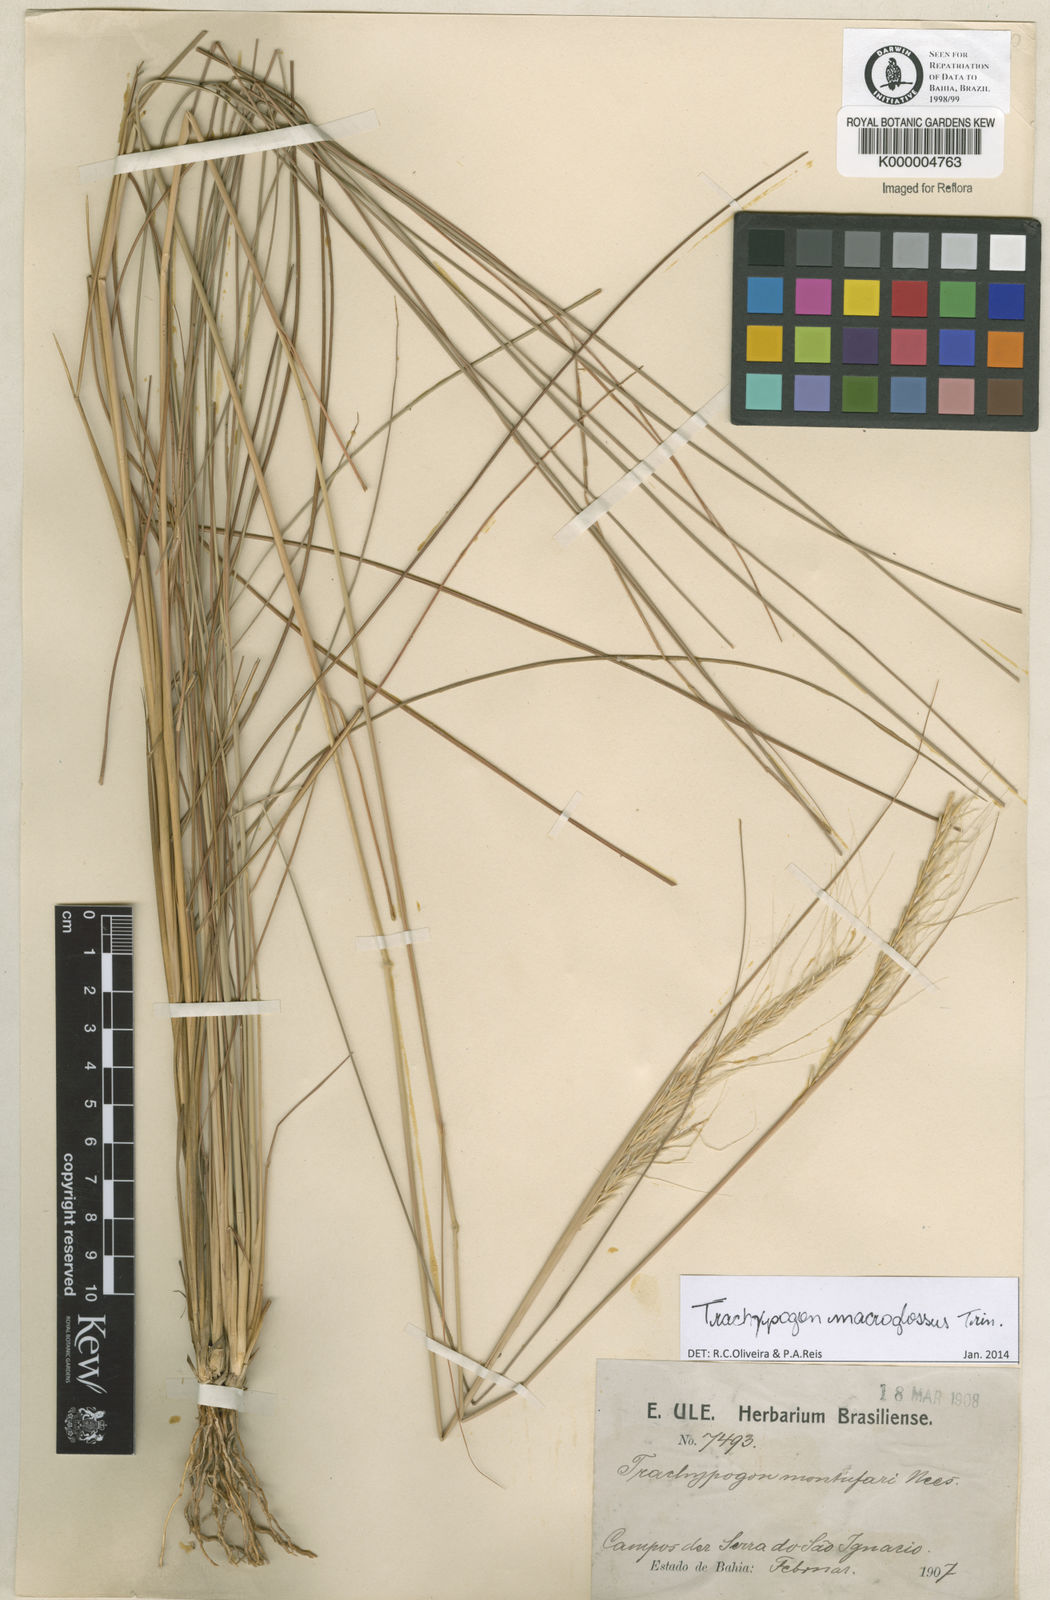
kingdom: Plantae
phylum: Tracheophyta
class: Liliopsida
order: Poales
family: Poaceae
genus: Trachypogon
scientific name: Trachypogon spicatus
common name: Crinkle-awn
